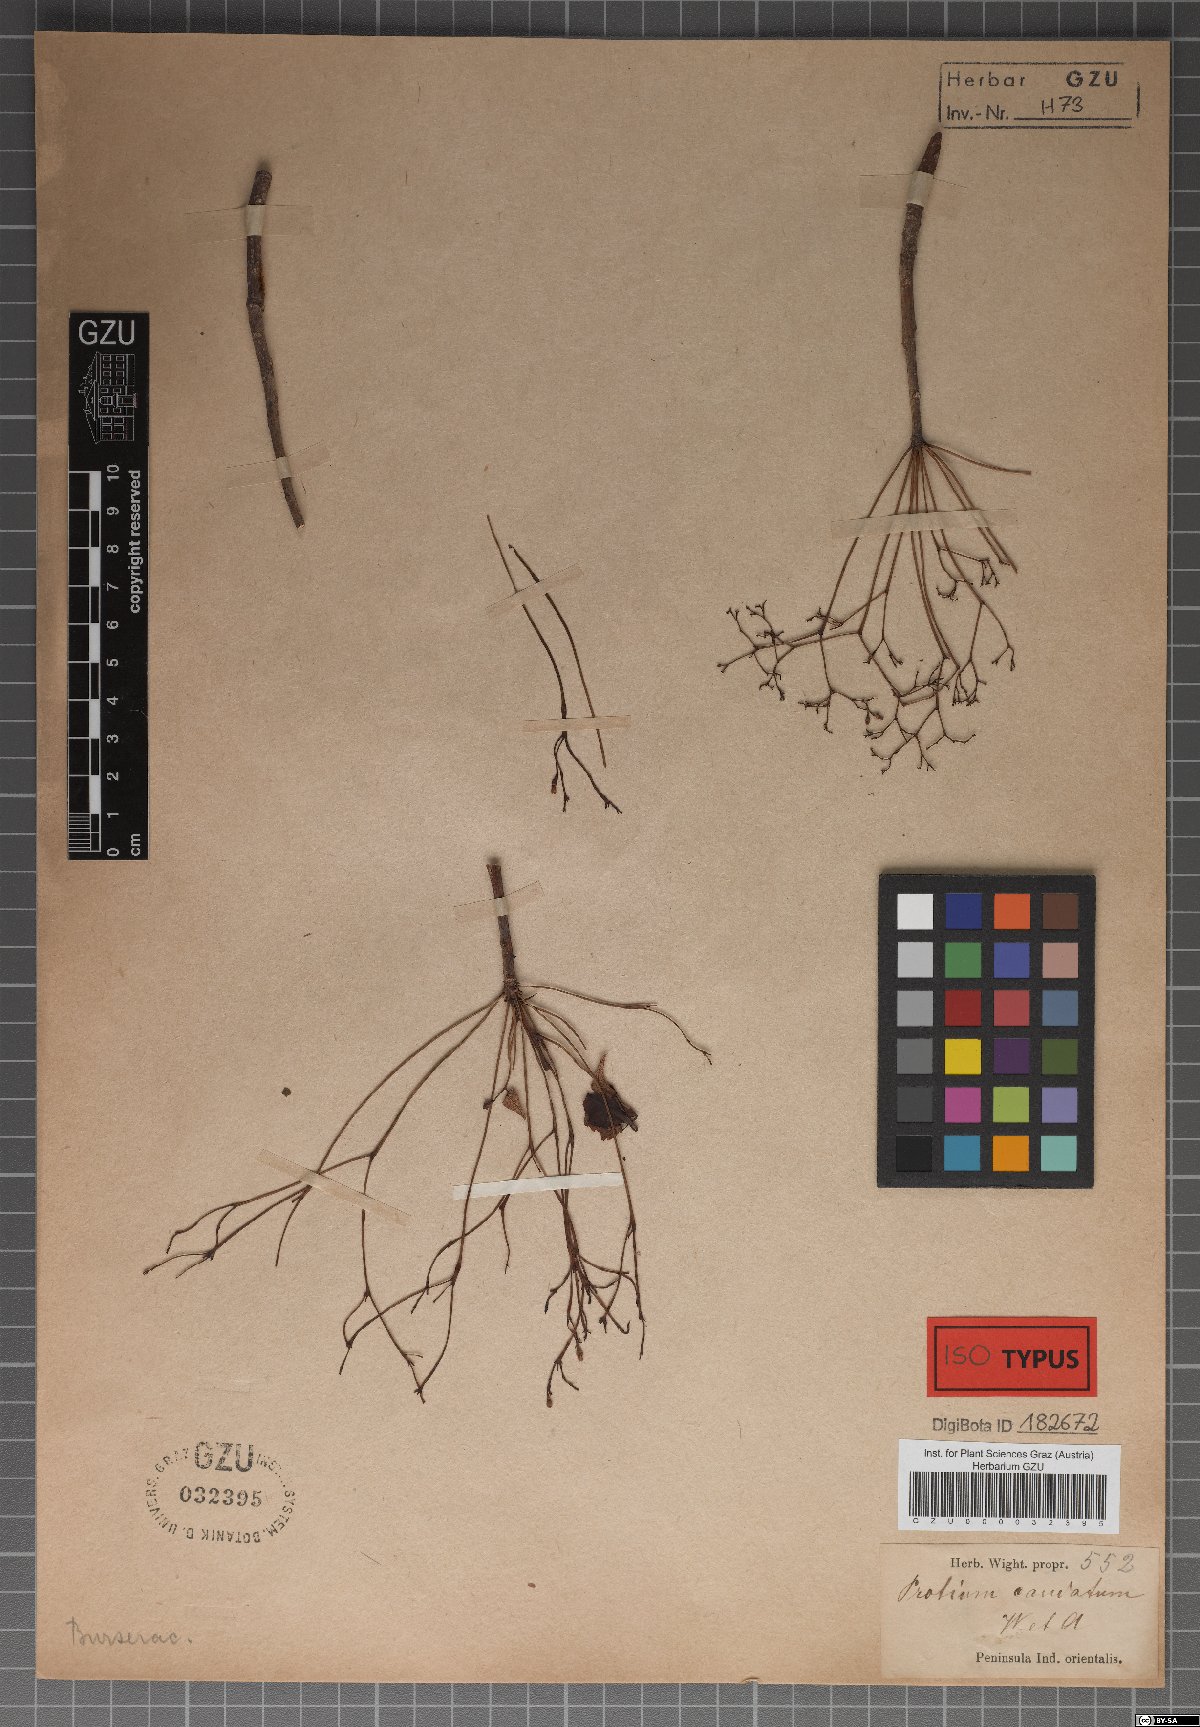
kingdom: Plantae
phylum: Tracheophyta
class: Magnoliopsida
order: Sapindales
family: Burseraceae
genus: Commiphora
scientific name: Commiphora caudata
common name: Hill-mango
